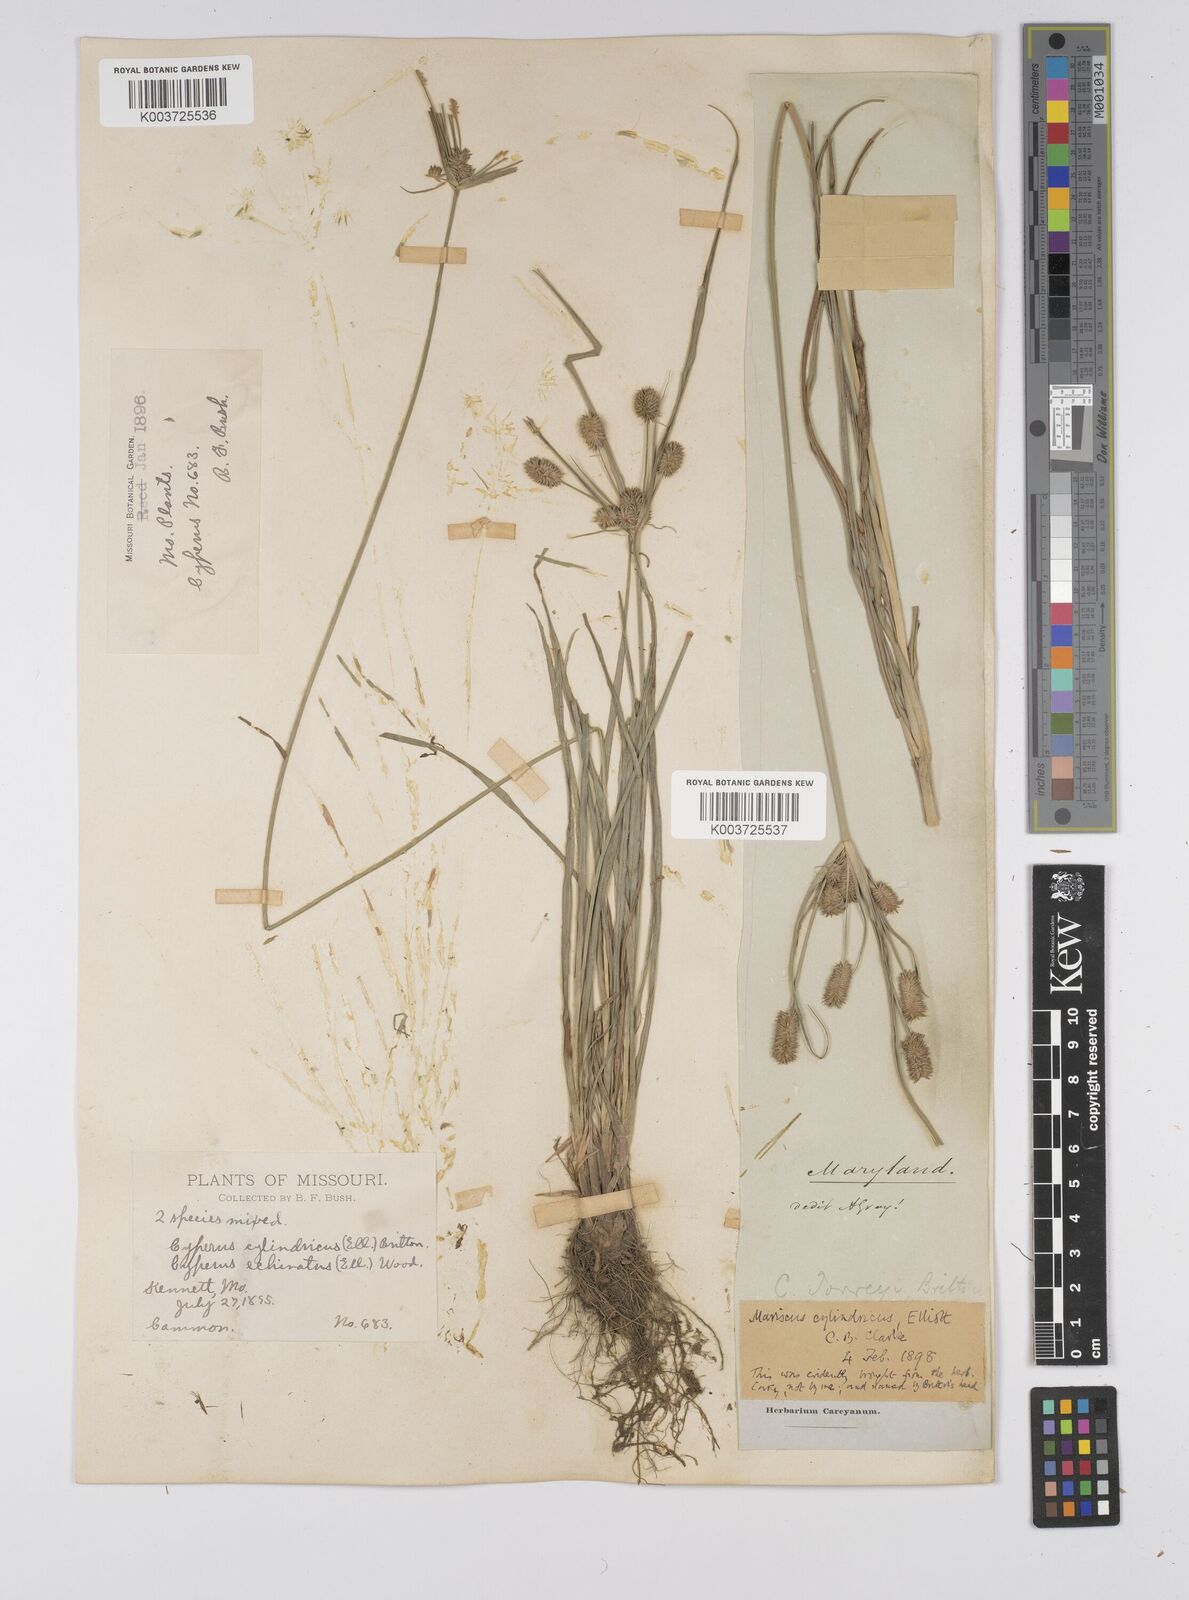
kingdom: Plantae
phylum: Tracheophyta
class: Liliopsida
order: Poales
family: Cyperaceae
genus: Cyperus
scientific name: Cyperus retrorsus
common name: Pinebarren flat sedge
